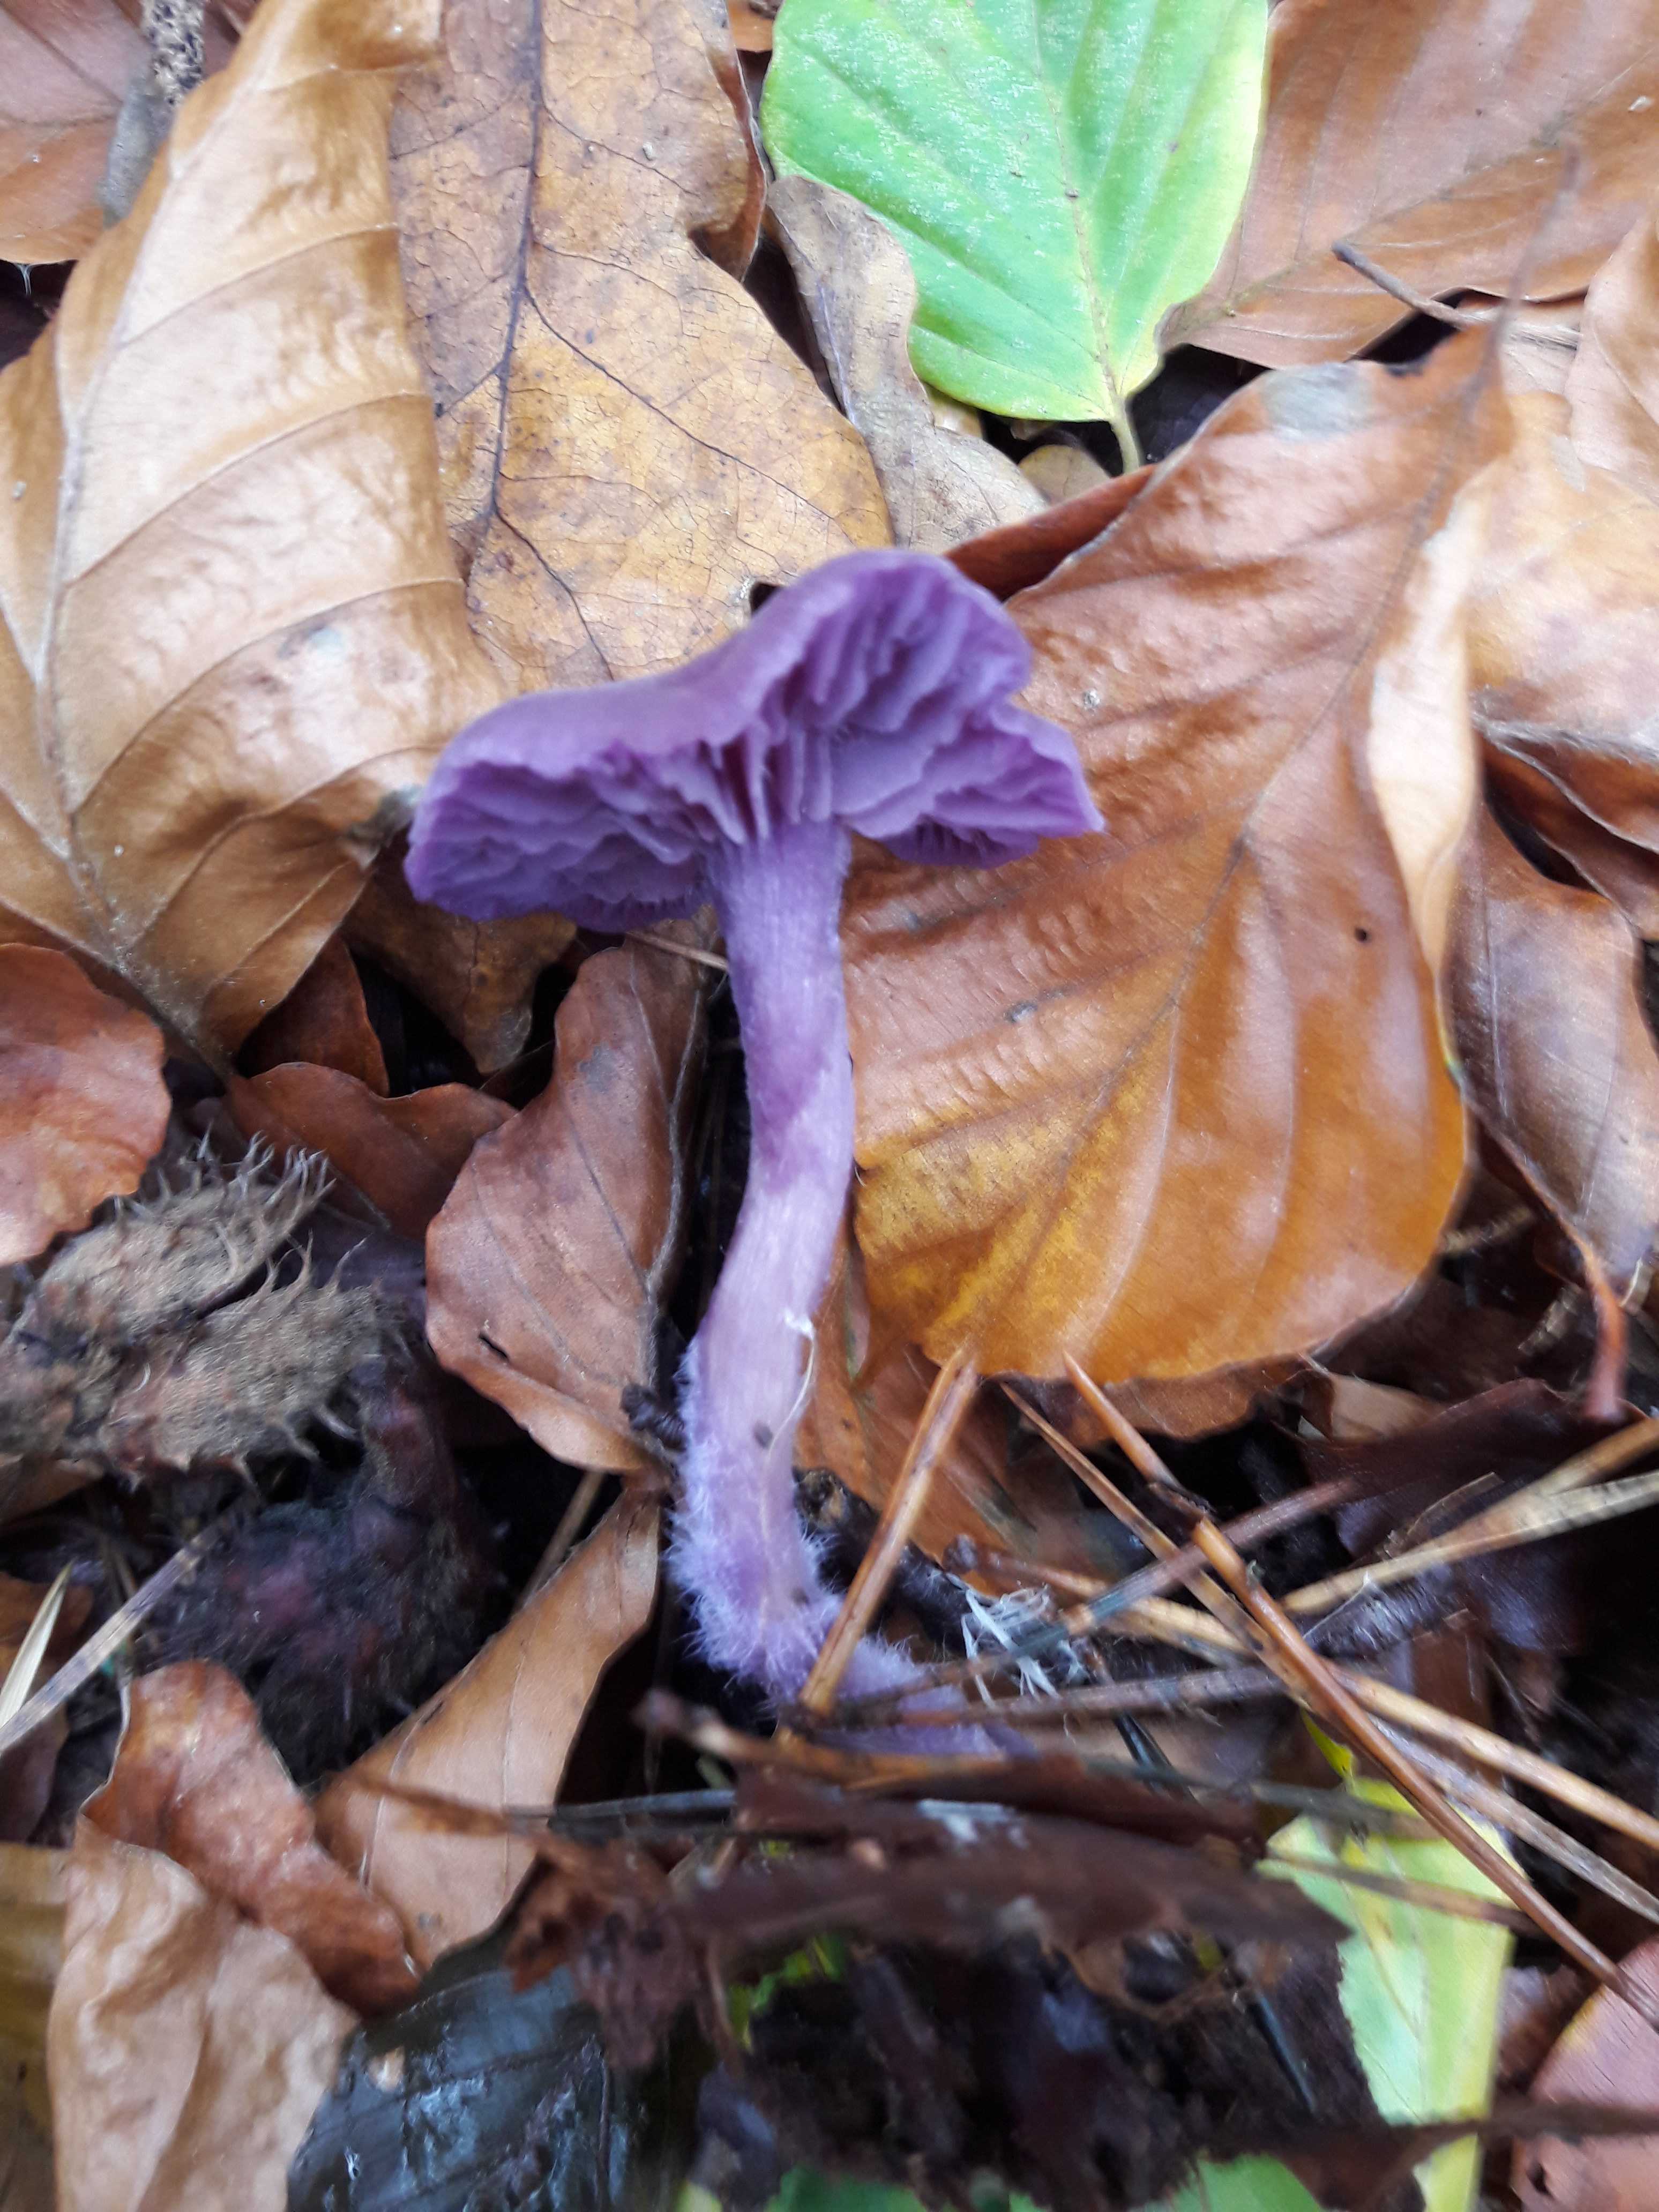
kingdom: Fungi
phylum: Basidiomycota
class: Agaricomycetes
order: Agaricales
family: Hydnangiaceae
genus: Laccaria
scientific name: Laccaria amethystina
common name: violet ametysthat
